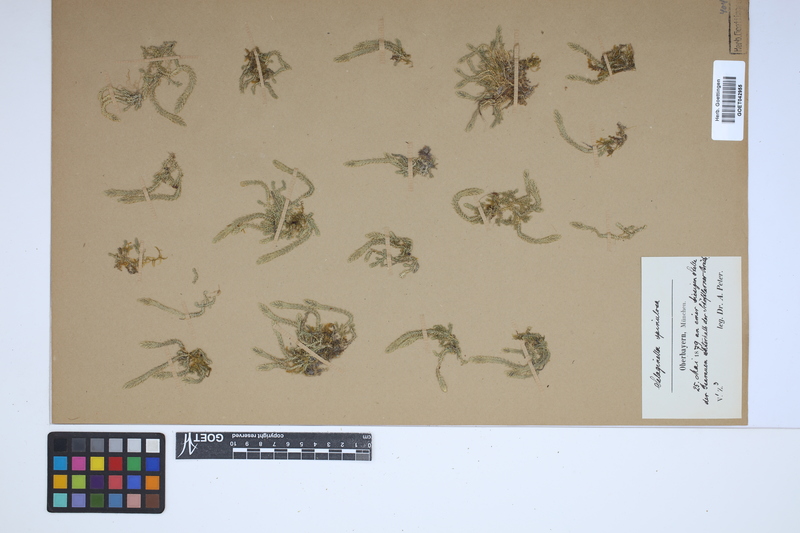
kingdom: Plantae
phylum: Tracheophyta
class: Lycopodiopsida
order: Selaginellales
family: Selaginellaceae
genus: Selaginella
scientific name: Selaginella selaginoides
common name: Prickly mountain-moss
